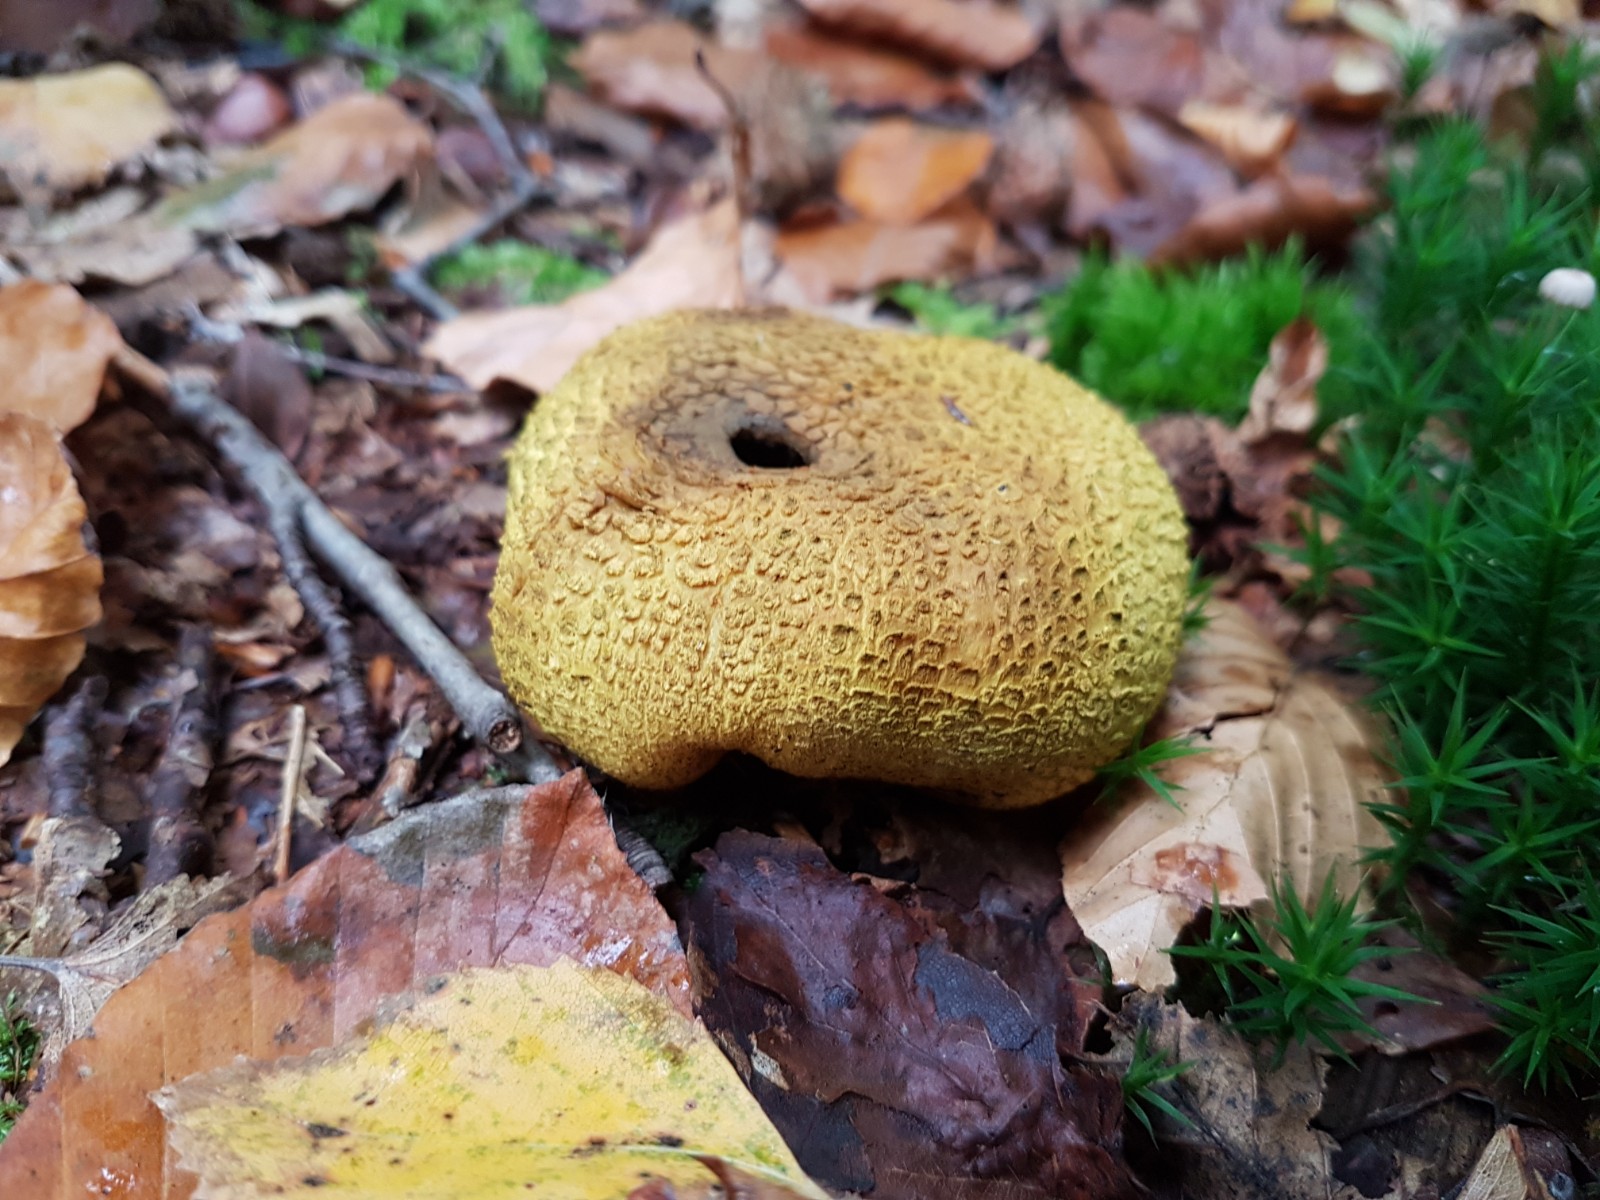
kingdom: Fungi
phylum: Basidiomycota
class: Agaricomycetes
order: Boletales
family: Sclerodermataceae
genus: Scleroderma
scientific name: Scleroderma citrinum
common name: almindelig bruskbold
